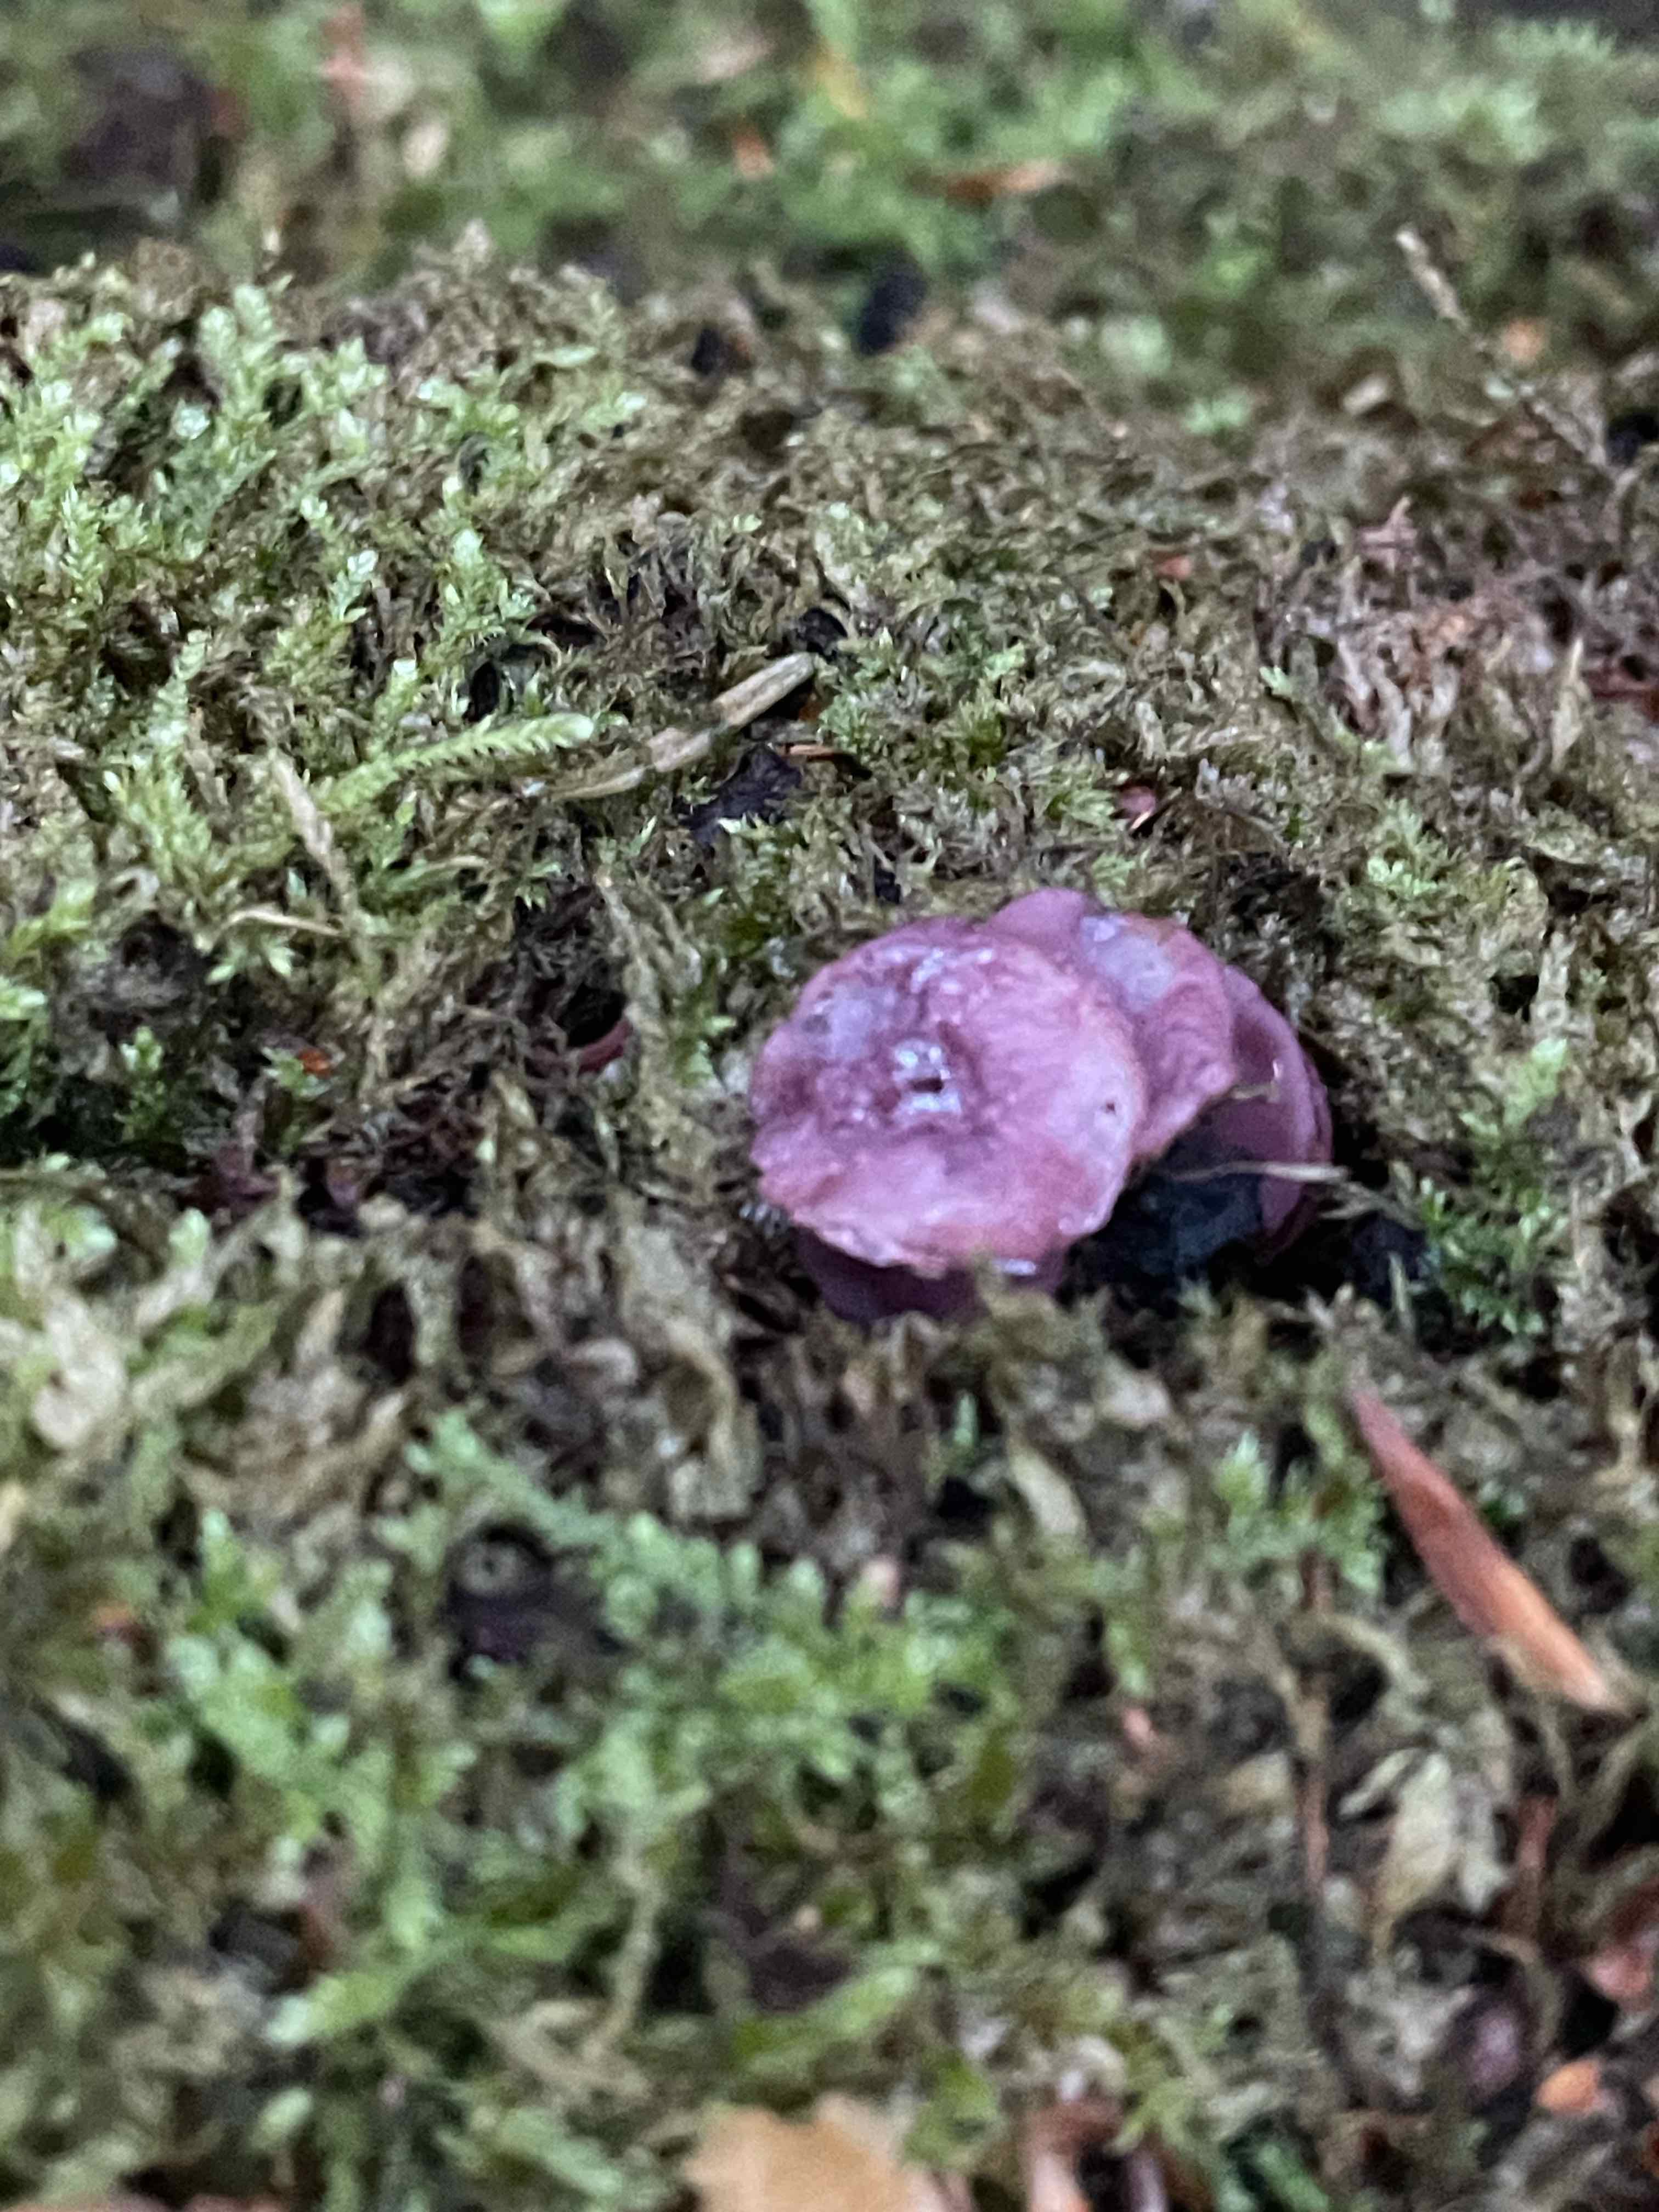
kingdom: Fungi
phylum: Ascomycota
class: Leotiomycetes
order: Helotiales
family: Gelatinodiscaceae
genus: Ascocoryne
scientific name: Ascocoryne cylichnium
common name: stor sejskive
